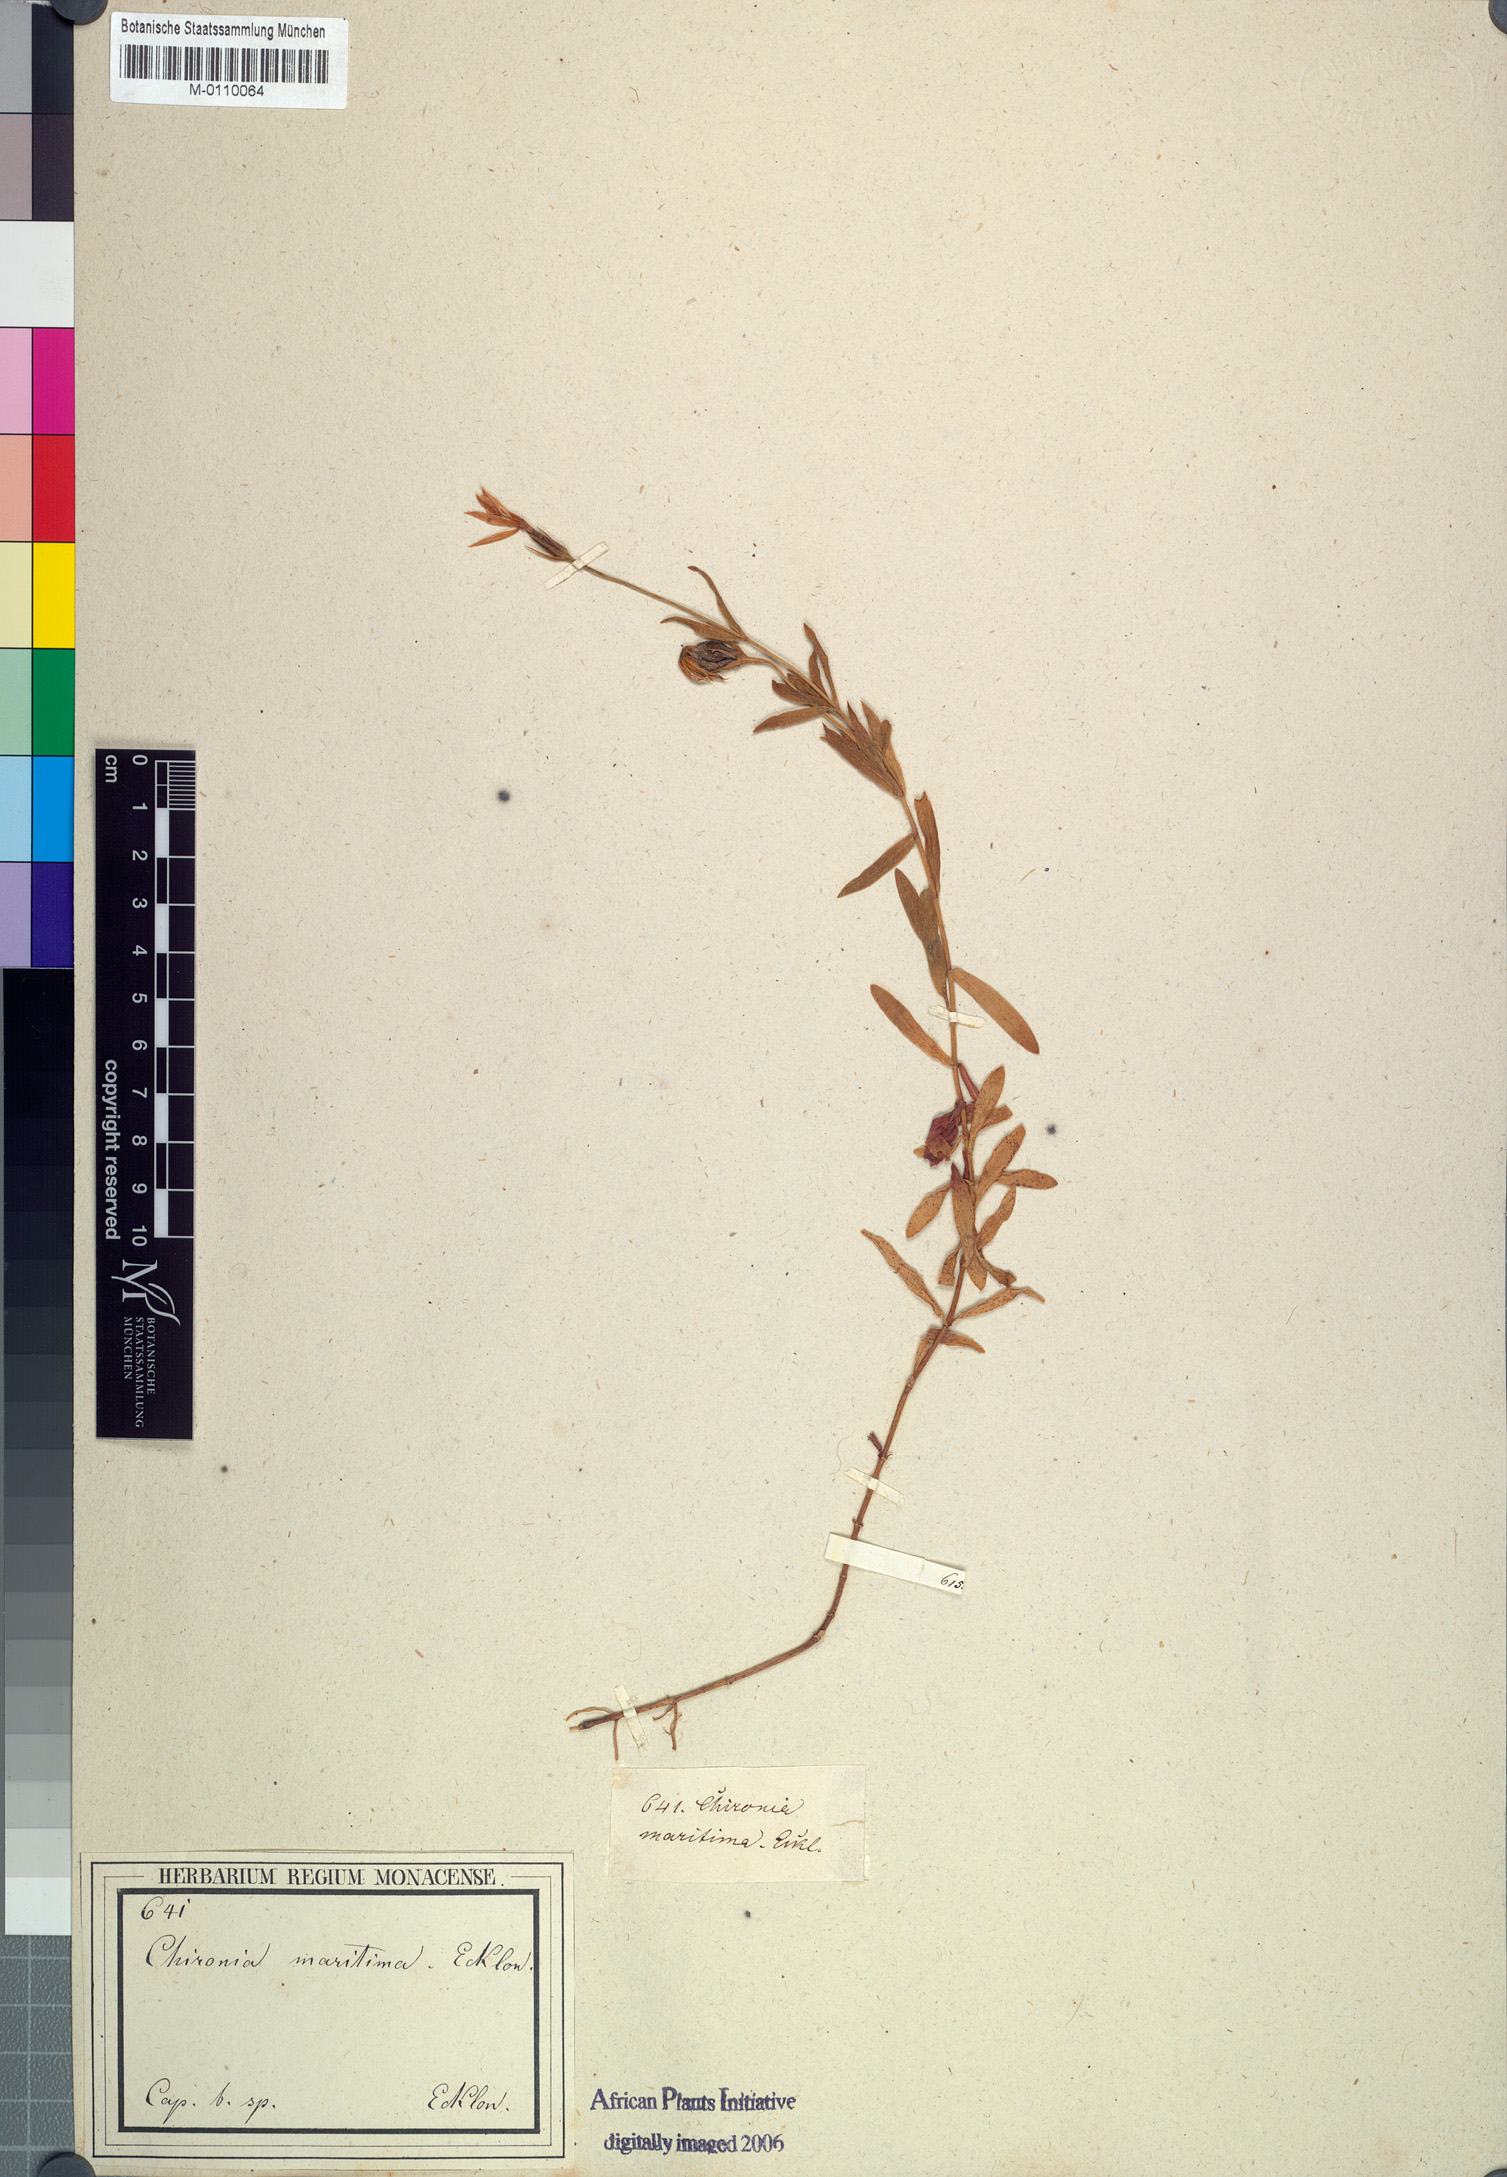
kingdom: Plantae
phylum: Tracheophyta
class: Magnoliopsida
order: Gentianales
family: Gentianaceae
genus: Chironia
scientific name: Chironia decumbens
